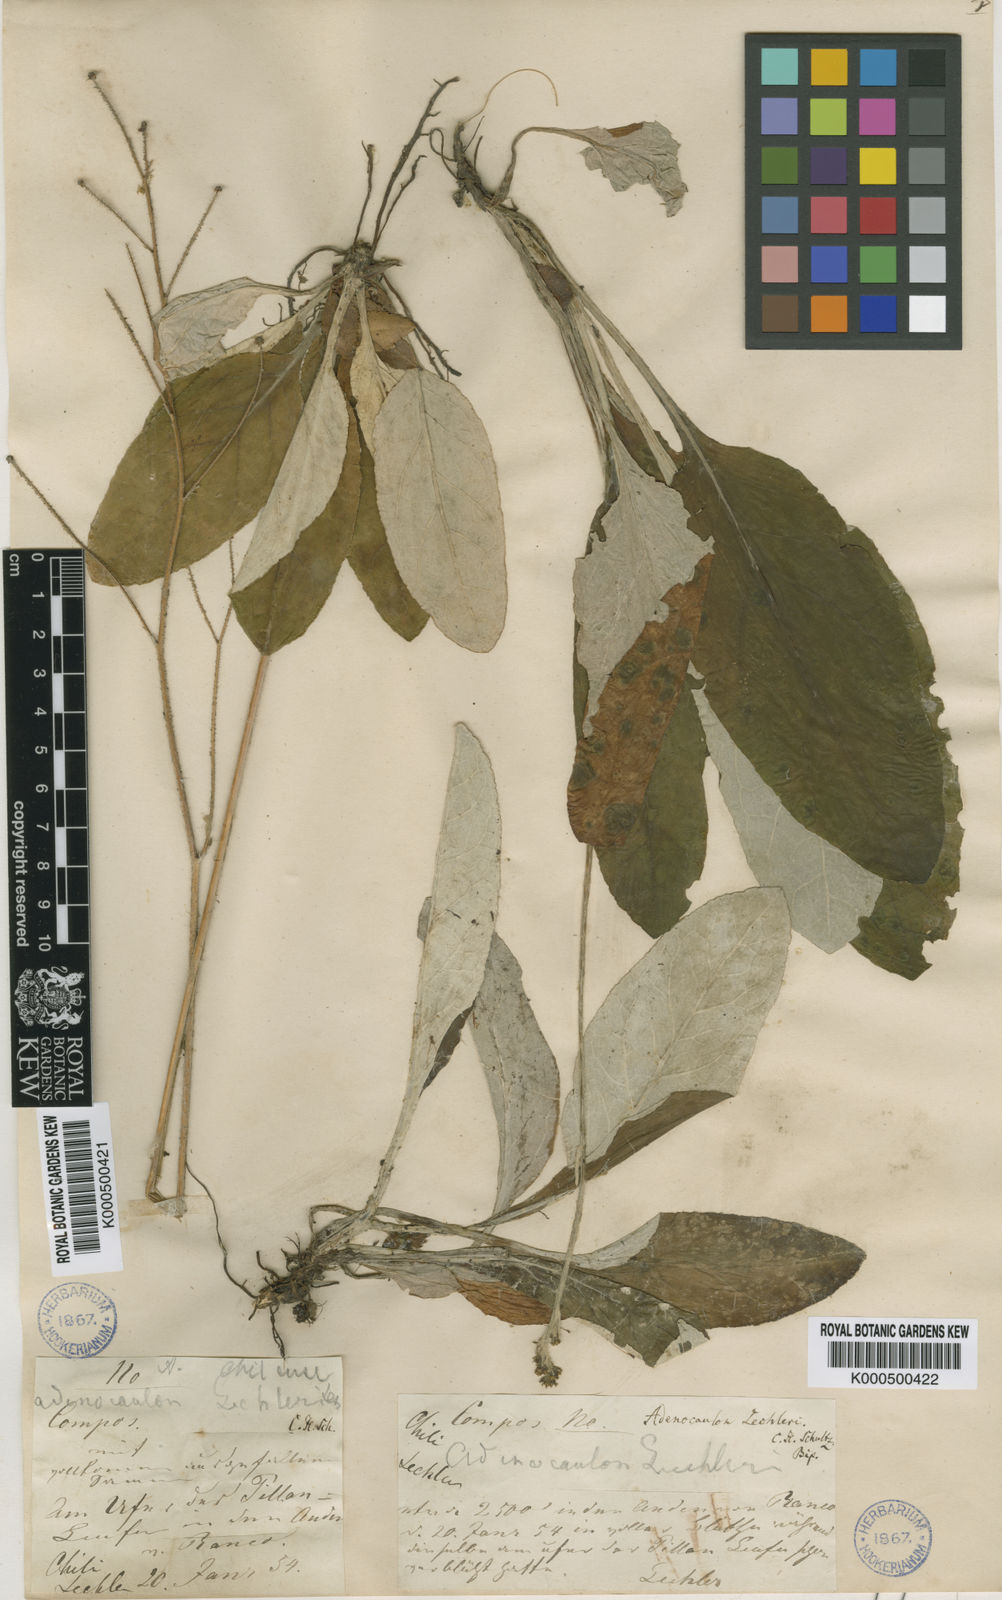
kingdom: Plantae
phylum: Tracheophyta
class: Magnoliopsida
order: Asterales
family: Asteraceae
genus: Adenocaulon
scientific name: Adenocaulon chilense
